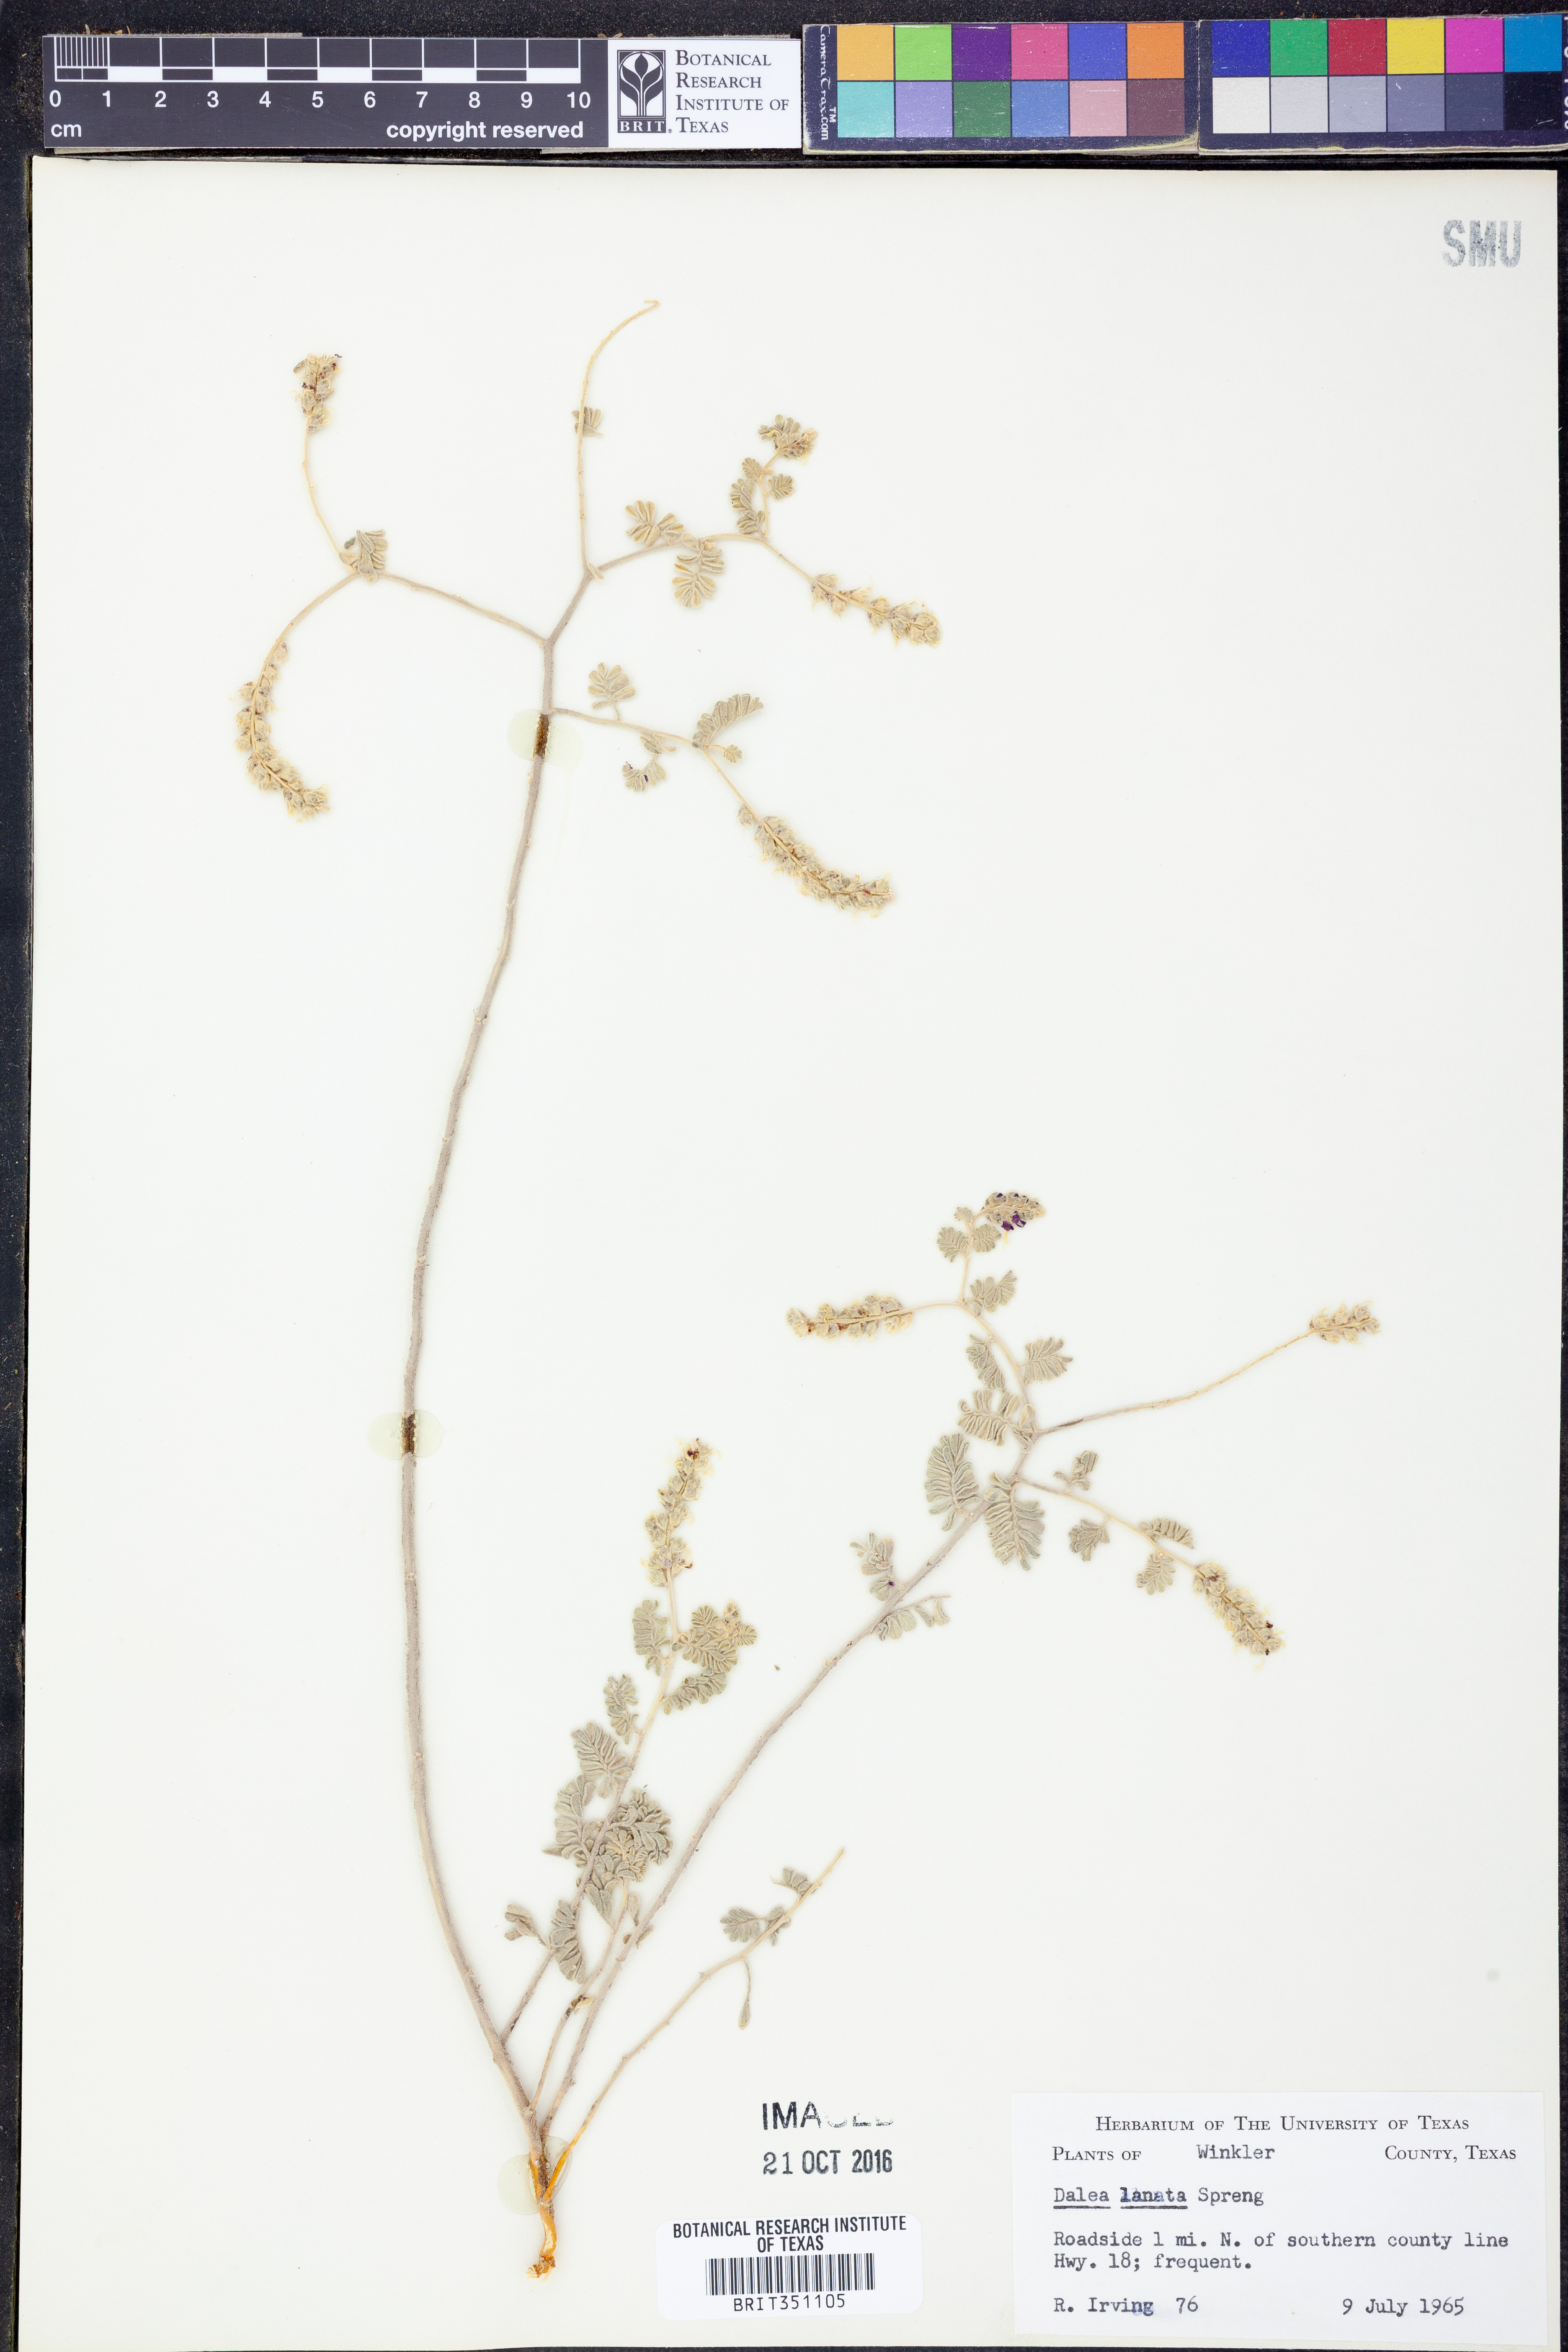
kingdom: Plantae
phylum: Tracheophyta
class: Magnoliopsida
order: Fabales
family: Fabaceae
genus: Dalea
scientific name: Dalea lanata
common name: Woolly dalea
